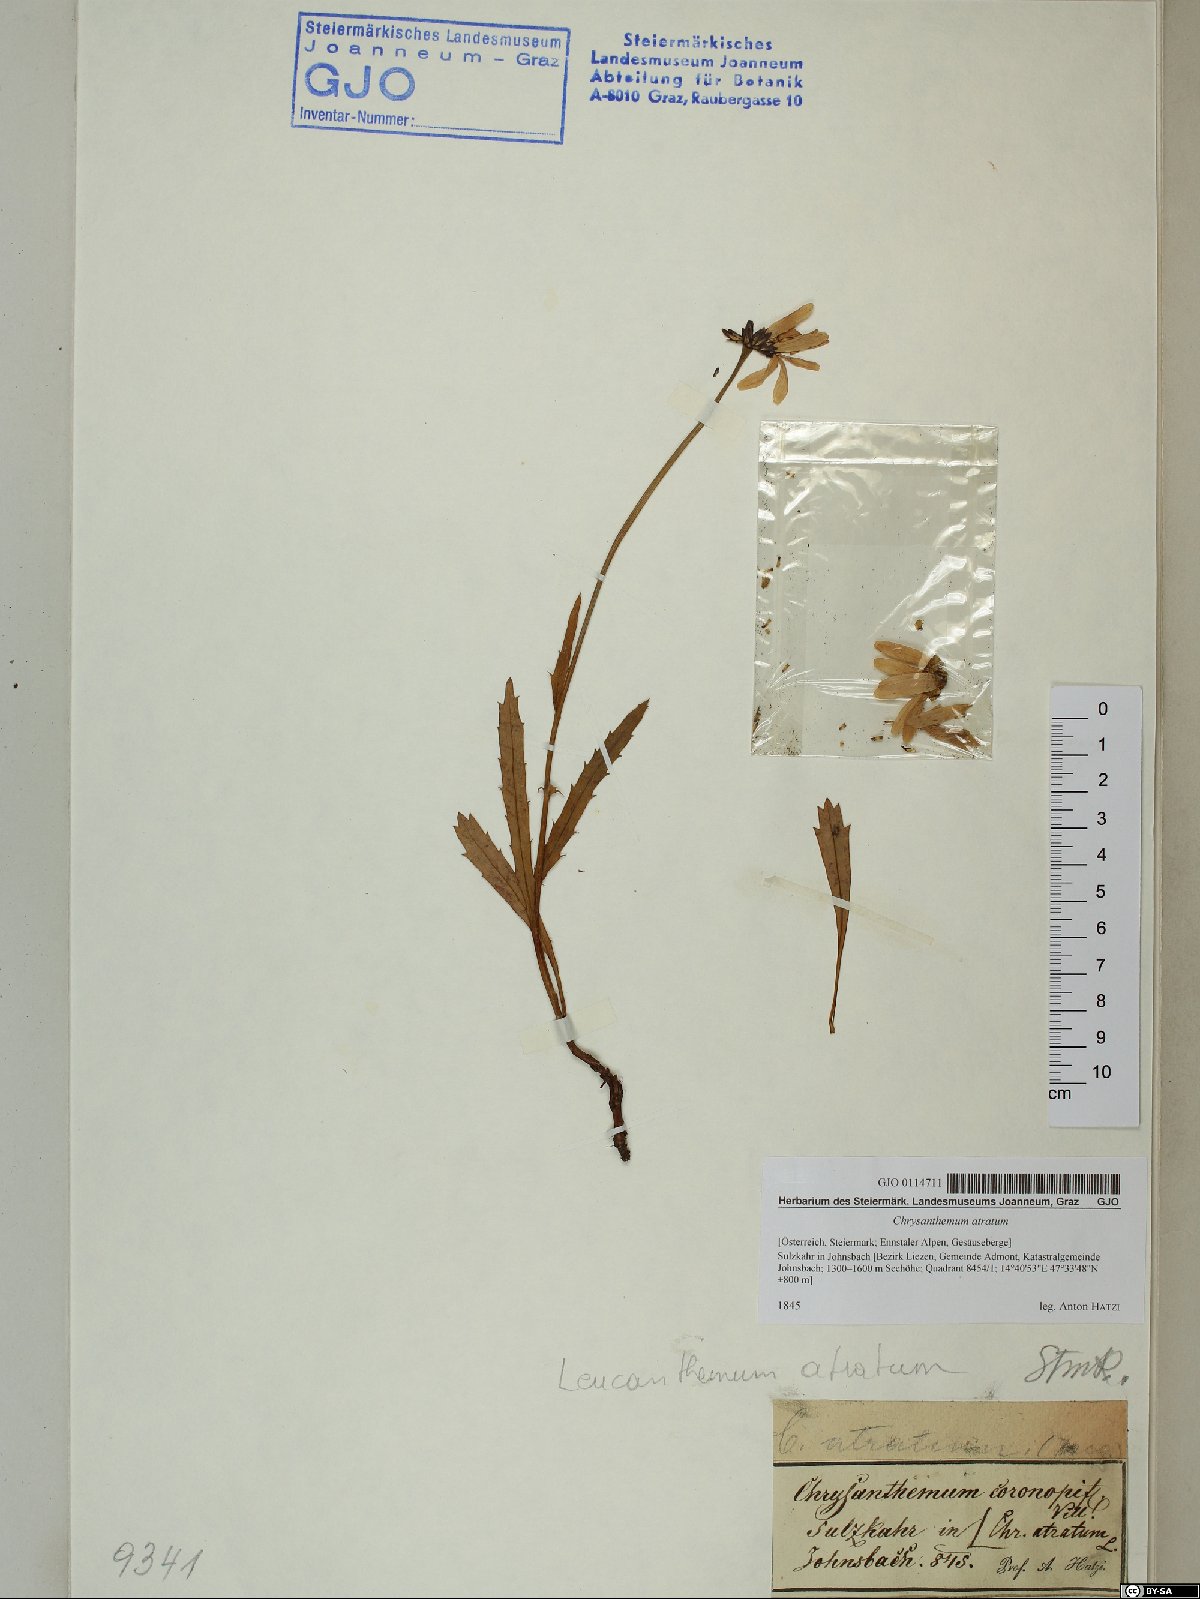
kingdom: Plantae
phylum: Tracheophyta
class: Magnoliopsida
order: Asterales
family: Asteraceae
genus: Leucanthemum
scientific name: Leucanthemum atratum
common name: Saw-leaved moon-daisy
